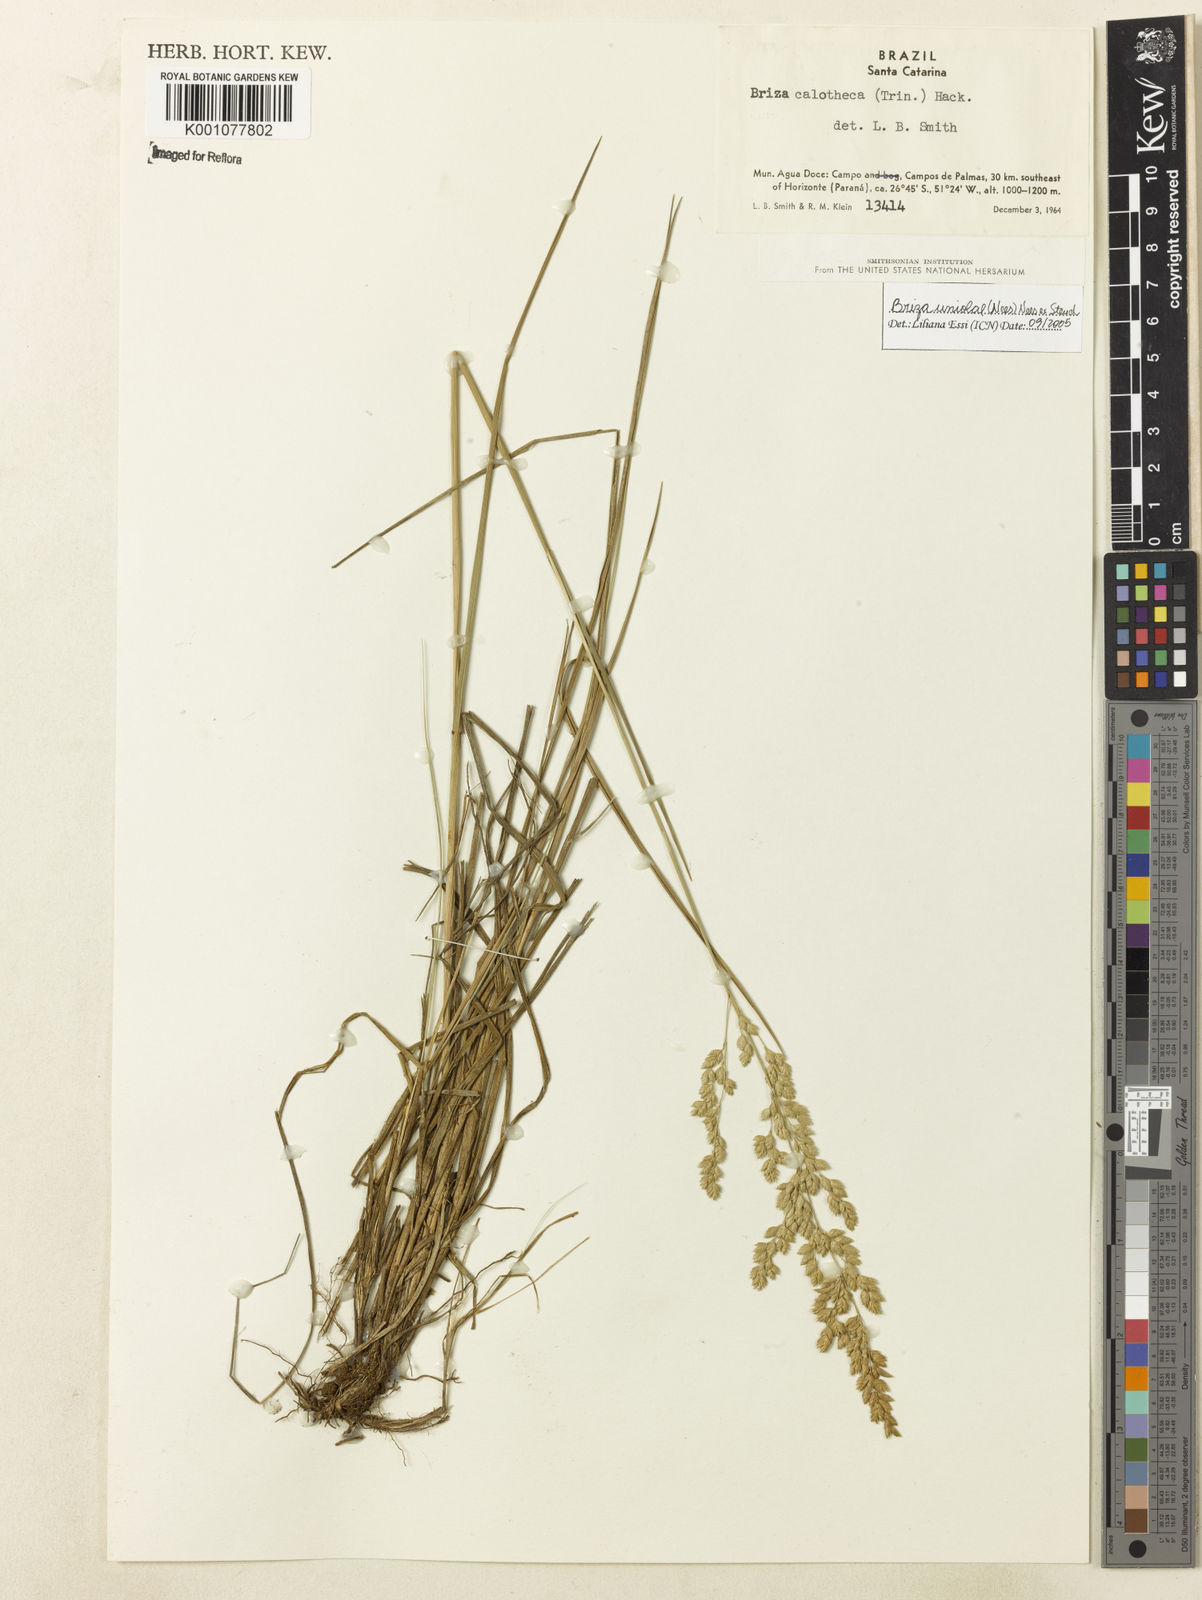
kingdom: Plantae
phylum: Tracheophyta
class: Liliopsida
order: Poales
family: Poaceae
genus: Poidium
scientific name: Poidium uniolae
